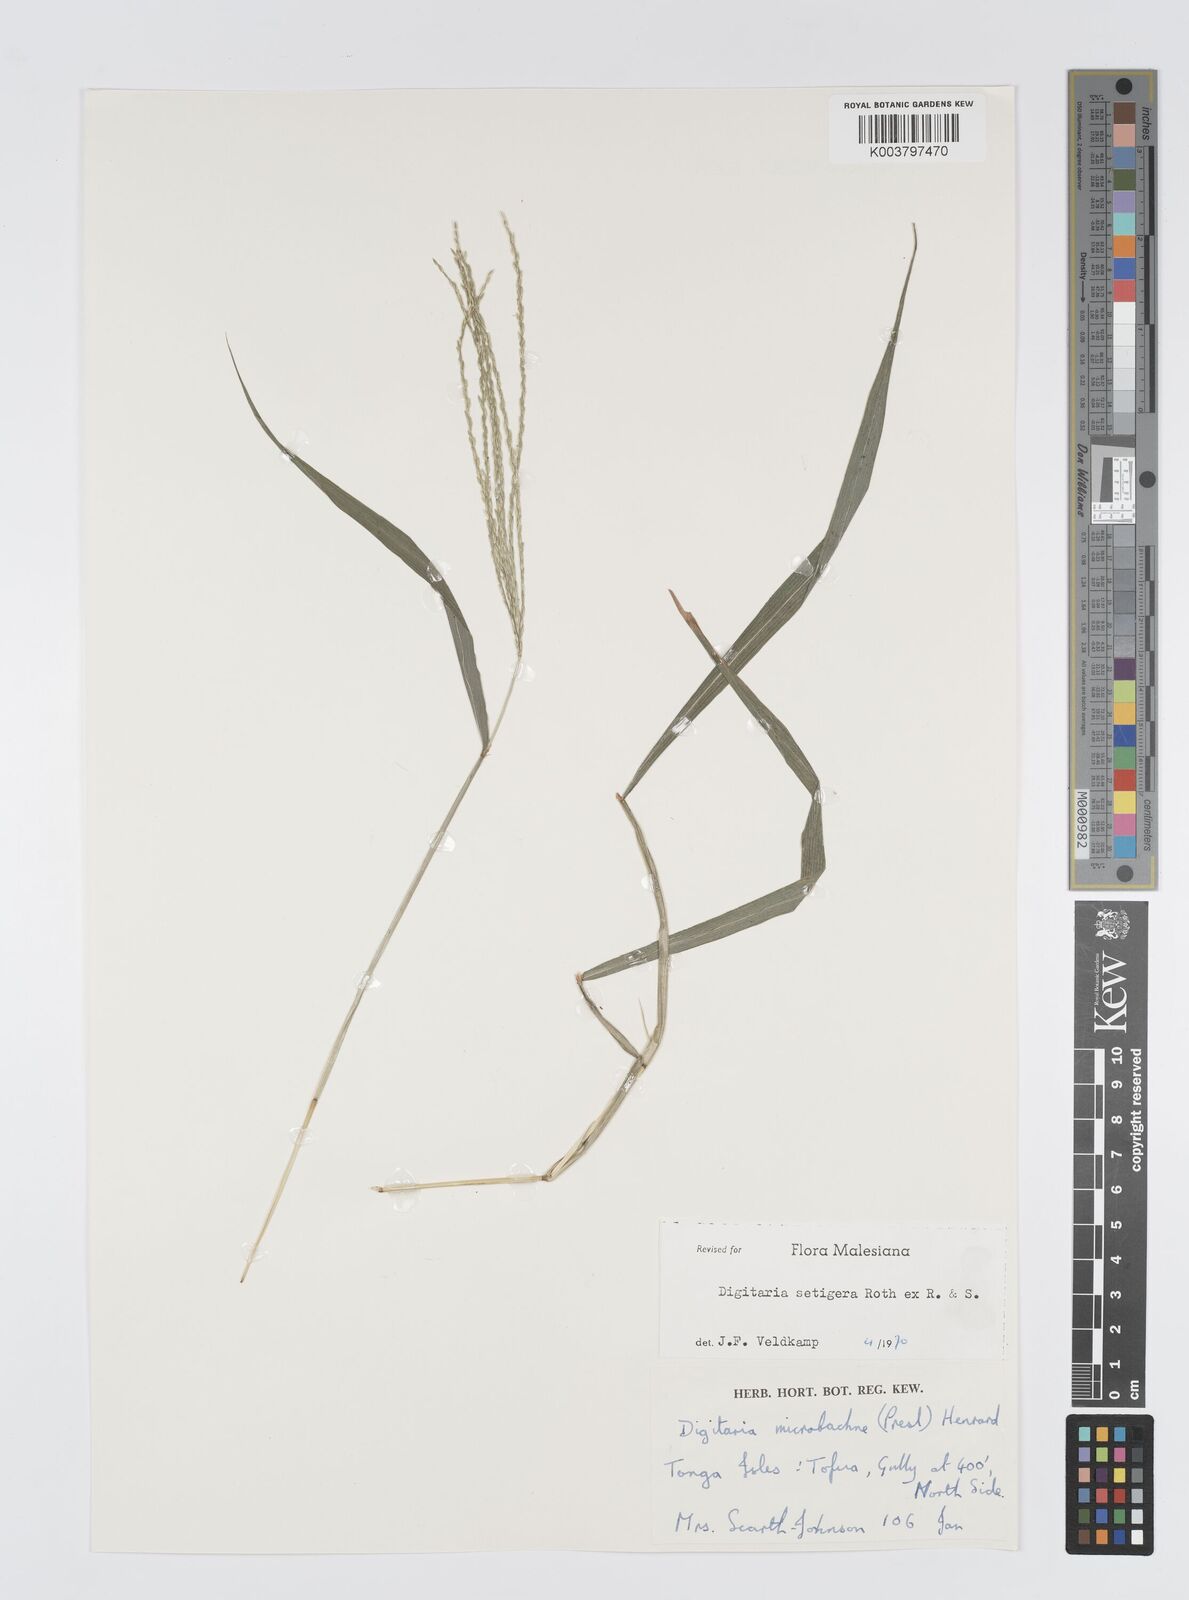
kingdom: Plantae
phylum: Tracheophyta
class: Liliopsida
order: Poales
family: Poaceae
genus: Digitaria
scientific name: Digitaria setigera
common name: East indian crabgrass
